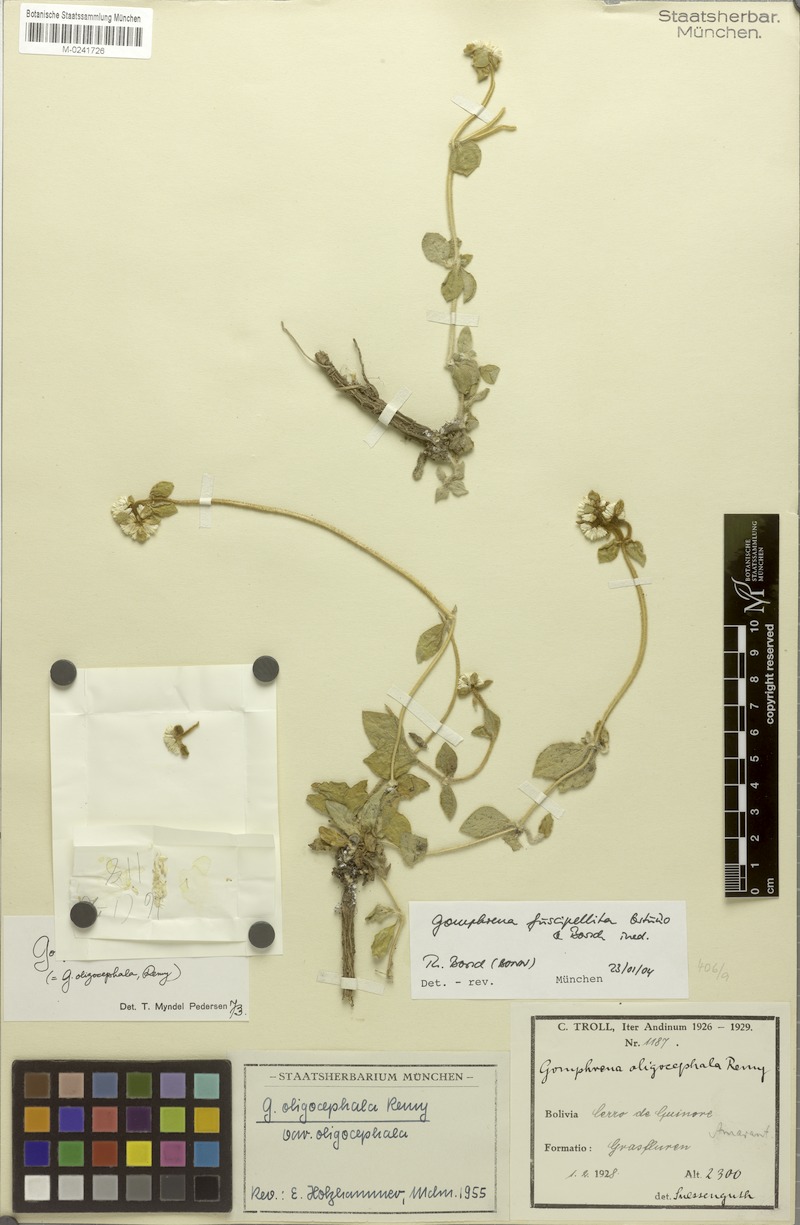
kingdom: Plantae
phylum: Tracheophyta
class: Magnoliopsida
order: Caryophyllales
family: Amaranthaceae
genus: Gomphrena
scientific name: Gomphrena fuscipellita
